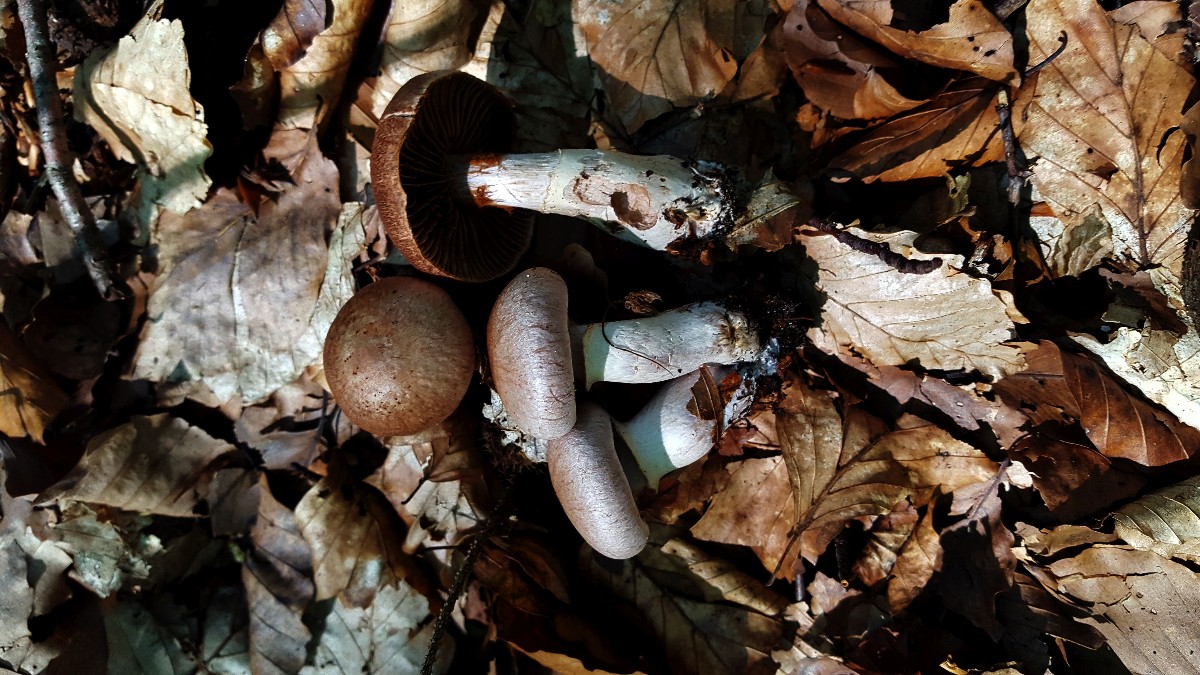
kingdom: Fungi
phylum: Basidiomycota
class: Agaricomycetes
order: Agaricales
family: Cortinariaceae
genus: Cortinarius
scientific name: Cortinarius torvus
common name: champignonagtig slørhat
